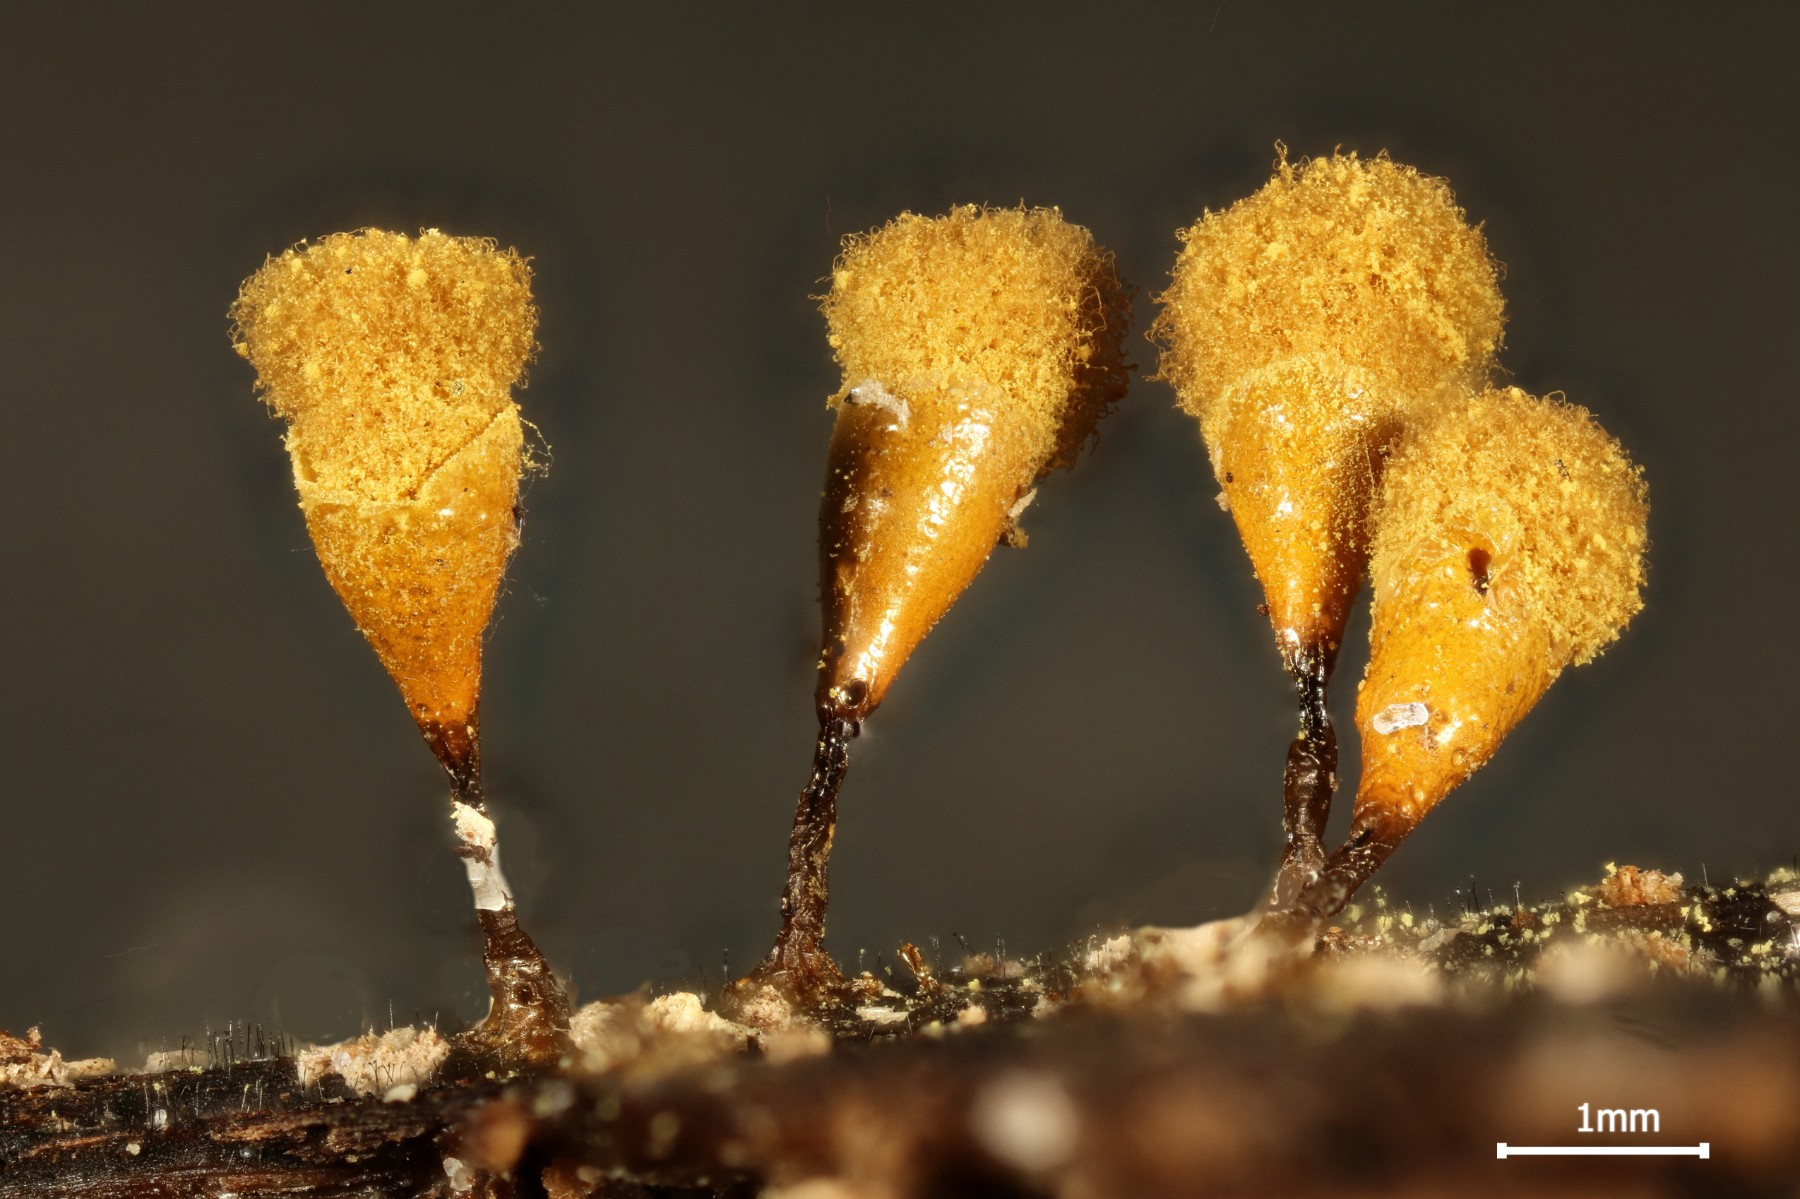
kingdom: Protozoa
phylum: Mycetozoa
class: Myxomycetes
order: Trichiales
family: Arcyriaceae
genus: Hemitrichia
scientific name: Hemitrichia clavata
